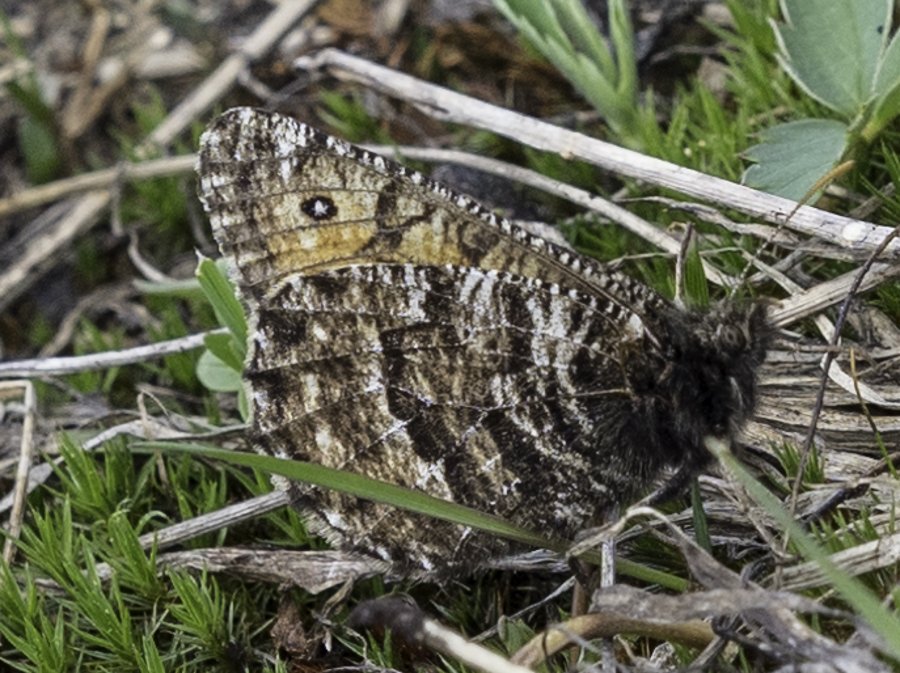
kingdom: Animalia
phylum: Arthropoda
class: Insecta
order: Lepidoptera
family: Nymphalidae
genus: Oeneis
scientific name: Oeneis chryxus
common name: Chryxus Arctic
